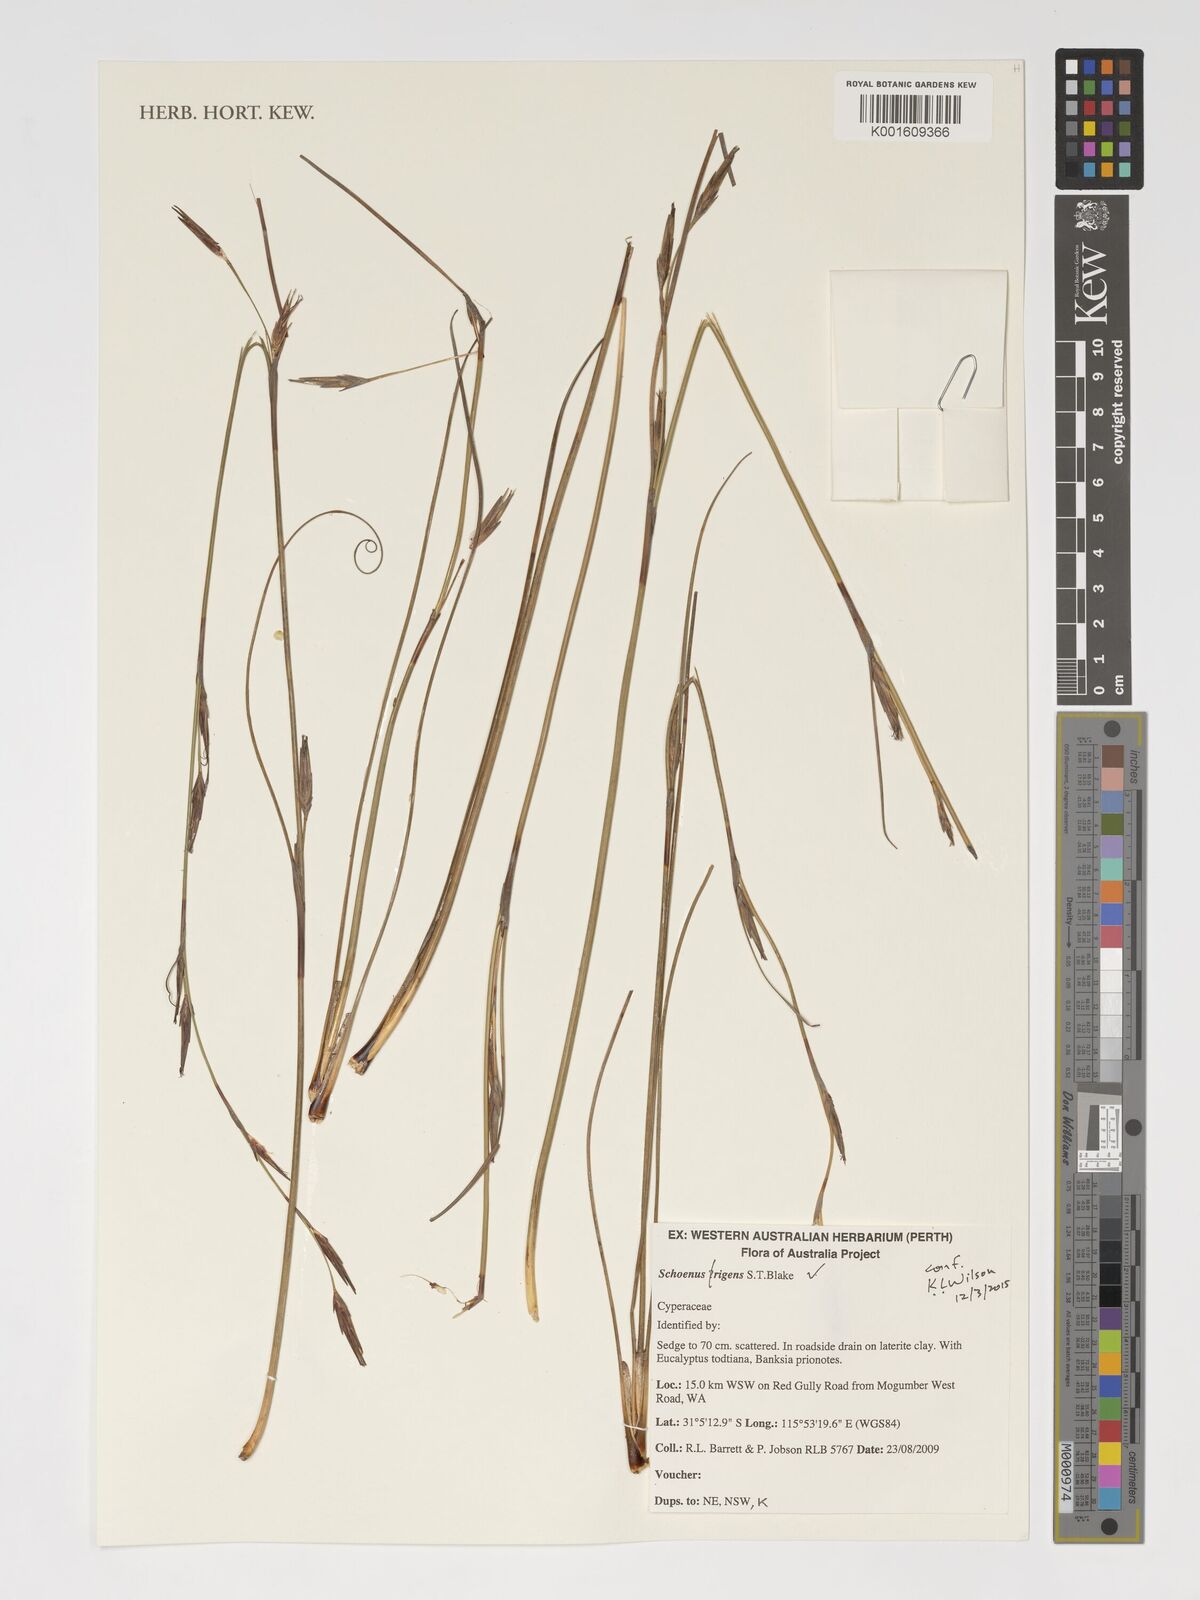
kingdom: Plantae
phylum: Tracheophyta
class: Liliopsida
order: Poales
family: Cyperaceae
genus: Schoenus
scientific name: Schoenus rigens
